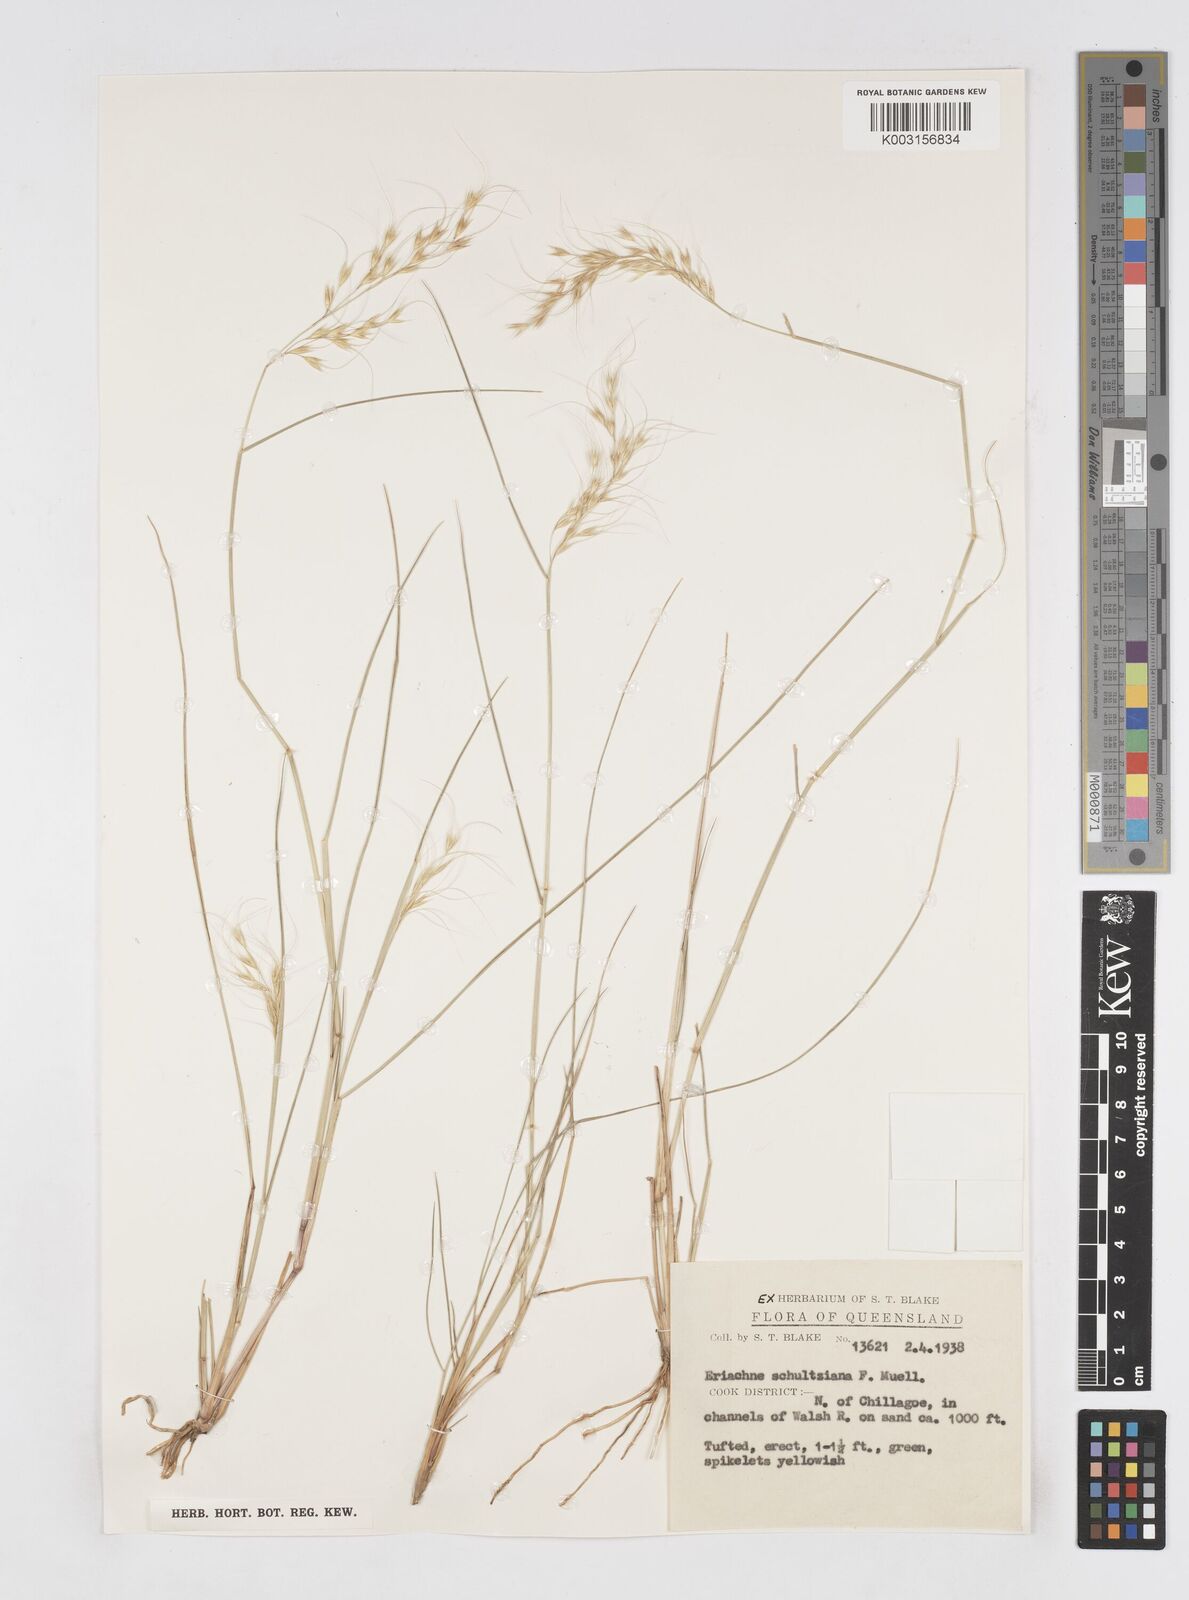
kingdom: Plantae
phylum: Tracheophyta
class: Liliopsida
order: Poales
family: Poaceae
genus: Eriachne
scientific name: Eriachne schultziana
